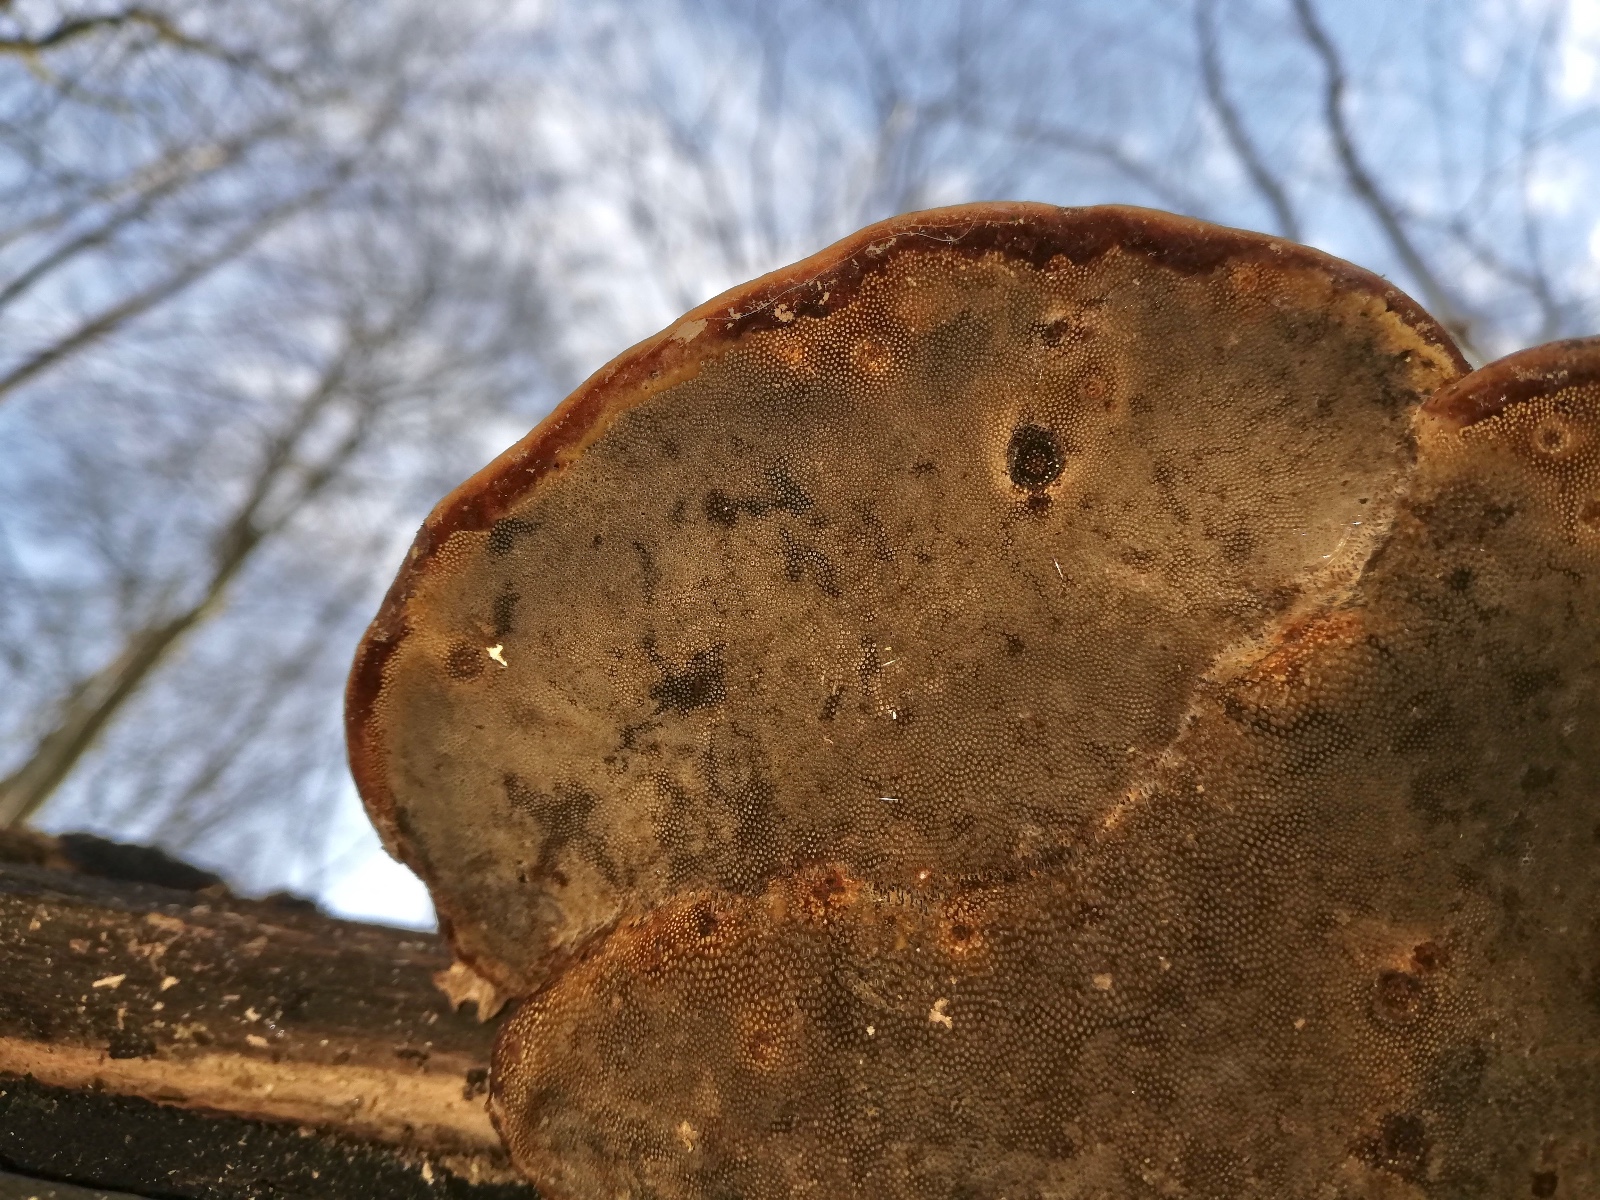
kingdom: Fungi
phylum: Basidiomycota
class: Agaricomycetes
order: Polyporales
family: Polyporaceae
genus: Fomes
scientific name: Fomes fomentarius
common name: tøndersvamp
